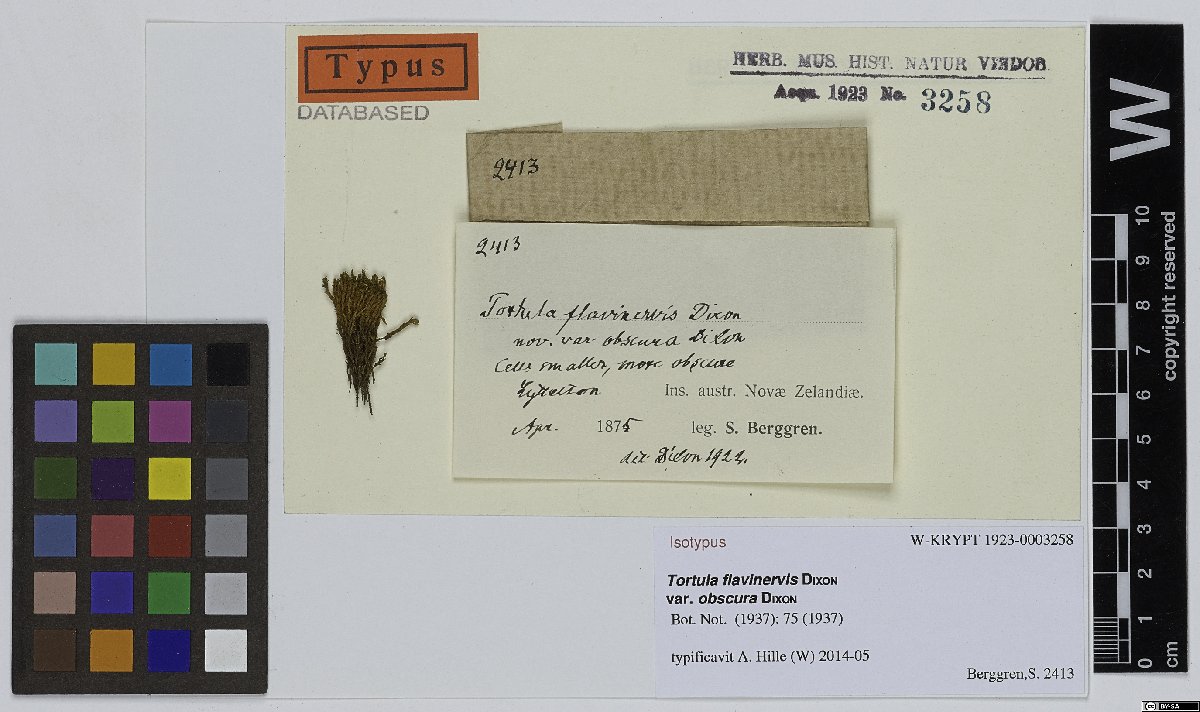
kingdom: Plantae
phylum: Bryophyta
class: Bryopsida
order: Pottiales
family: Pottiaceae
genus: Pseudocrossidium
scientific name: Pseudocrossidium crinitum
